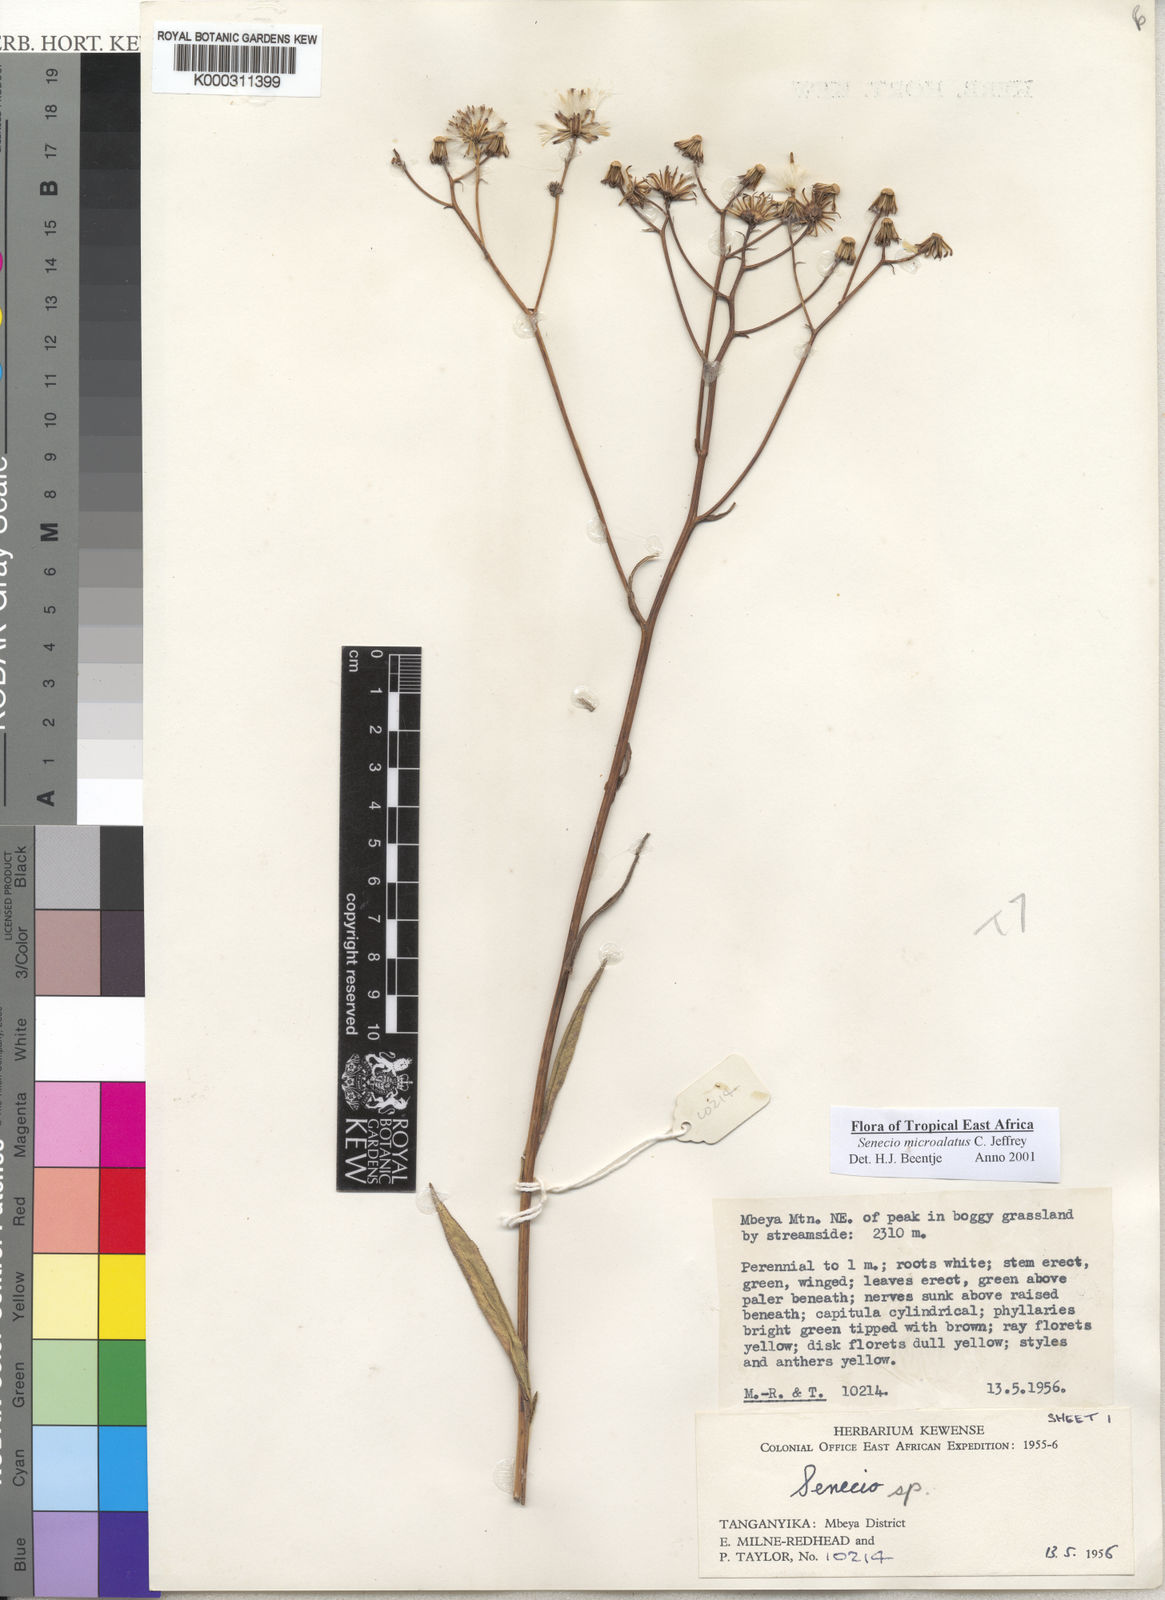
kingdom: Plantae
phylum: Tracheophyta
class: Magnoliopsida
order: Asterales
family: Asteraceae
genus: Senecio
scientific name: Senecio microalatus
